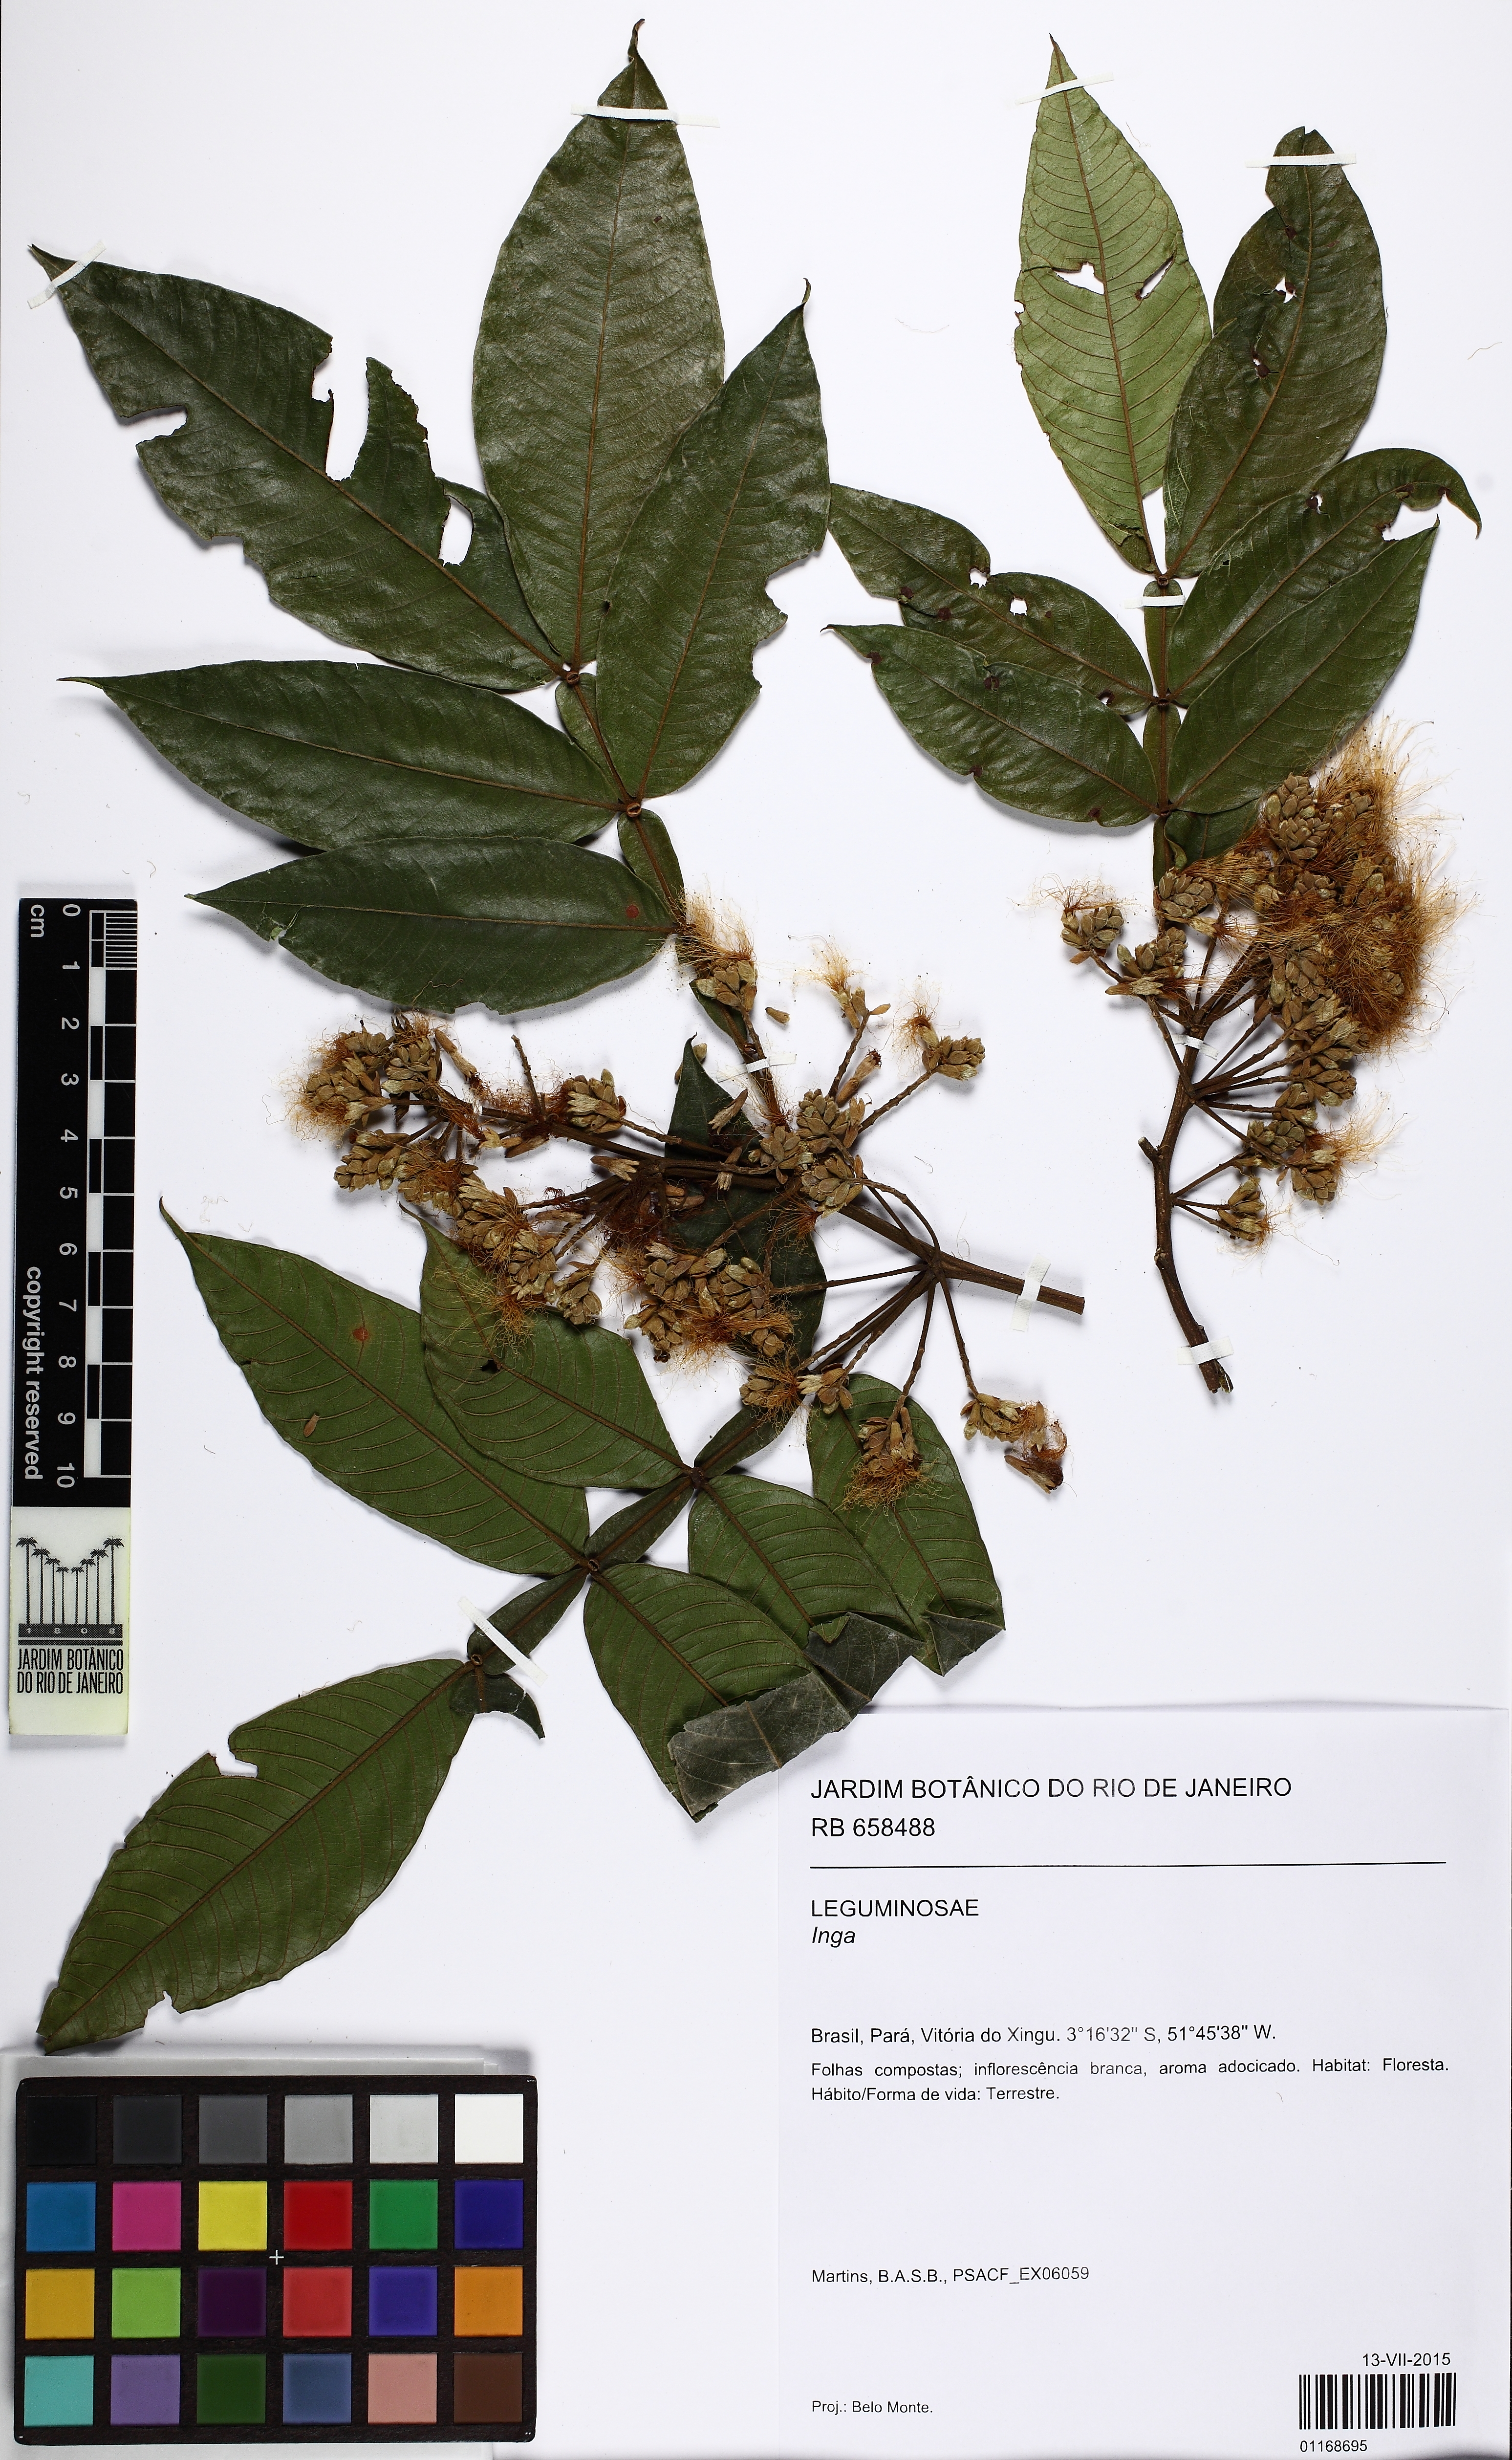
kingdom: Plantae
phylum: Tracheophyta
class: Magnoliopsida
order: Fabales
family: Fabaceae
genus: Inga
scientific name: Inga edulis
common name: Ice cream bean
